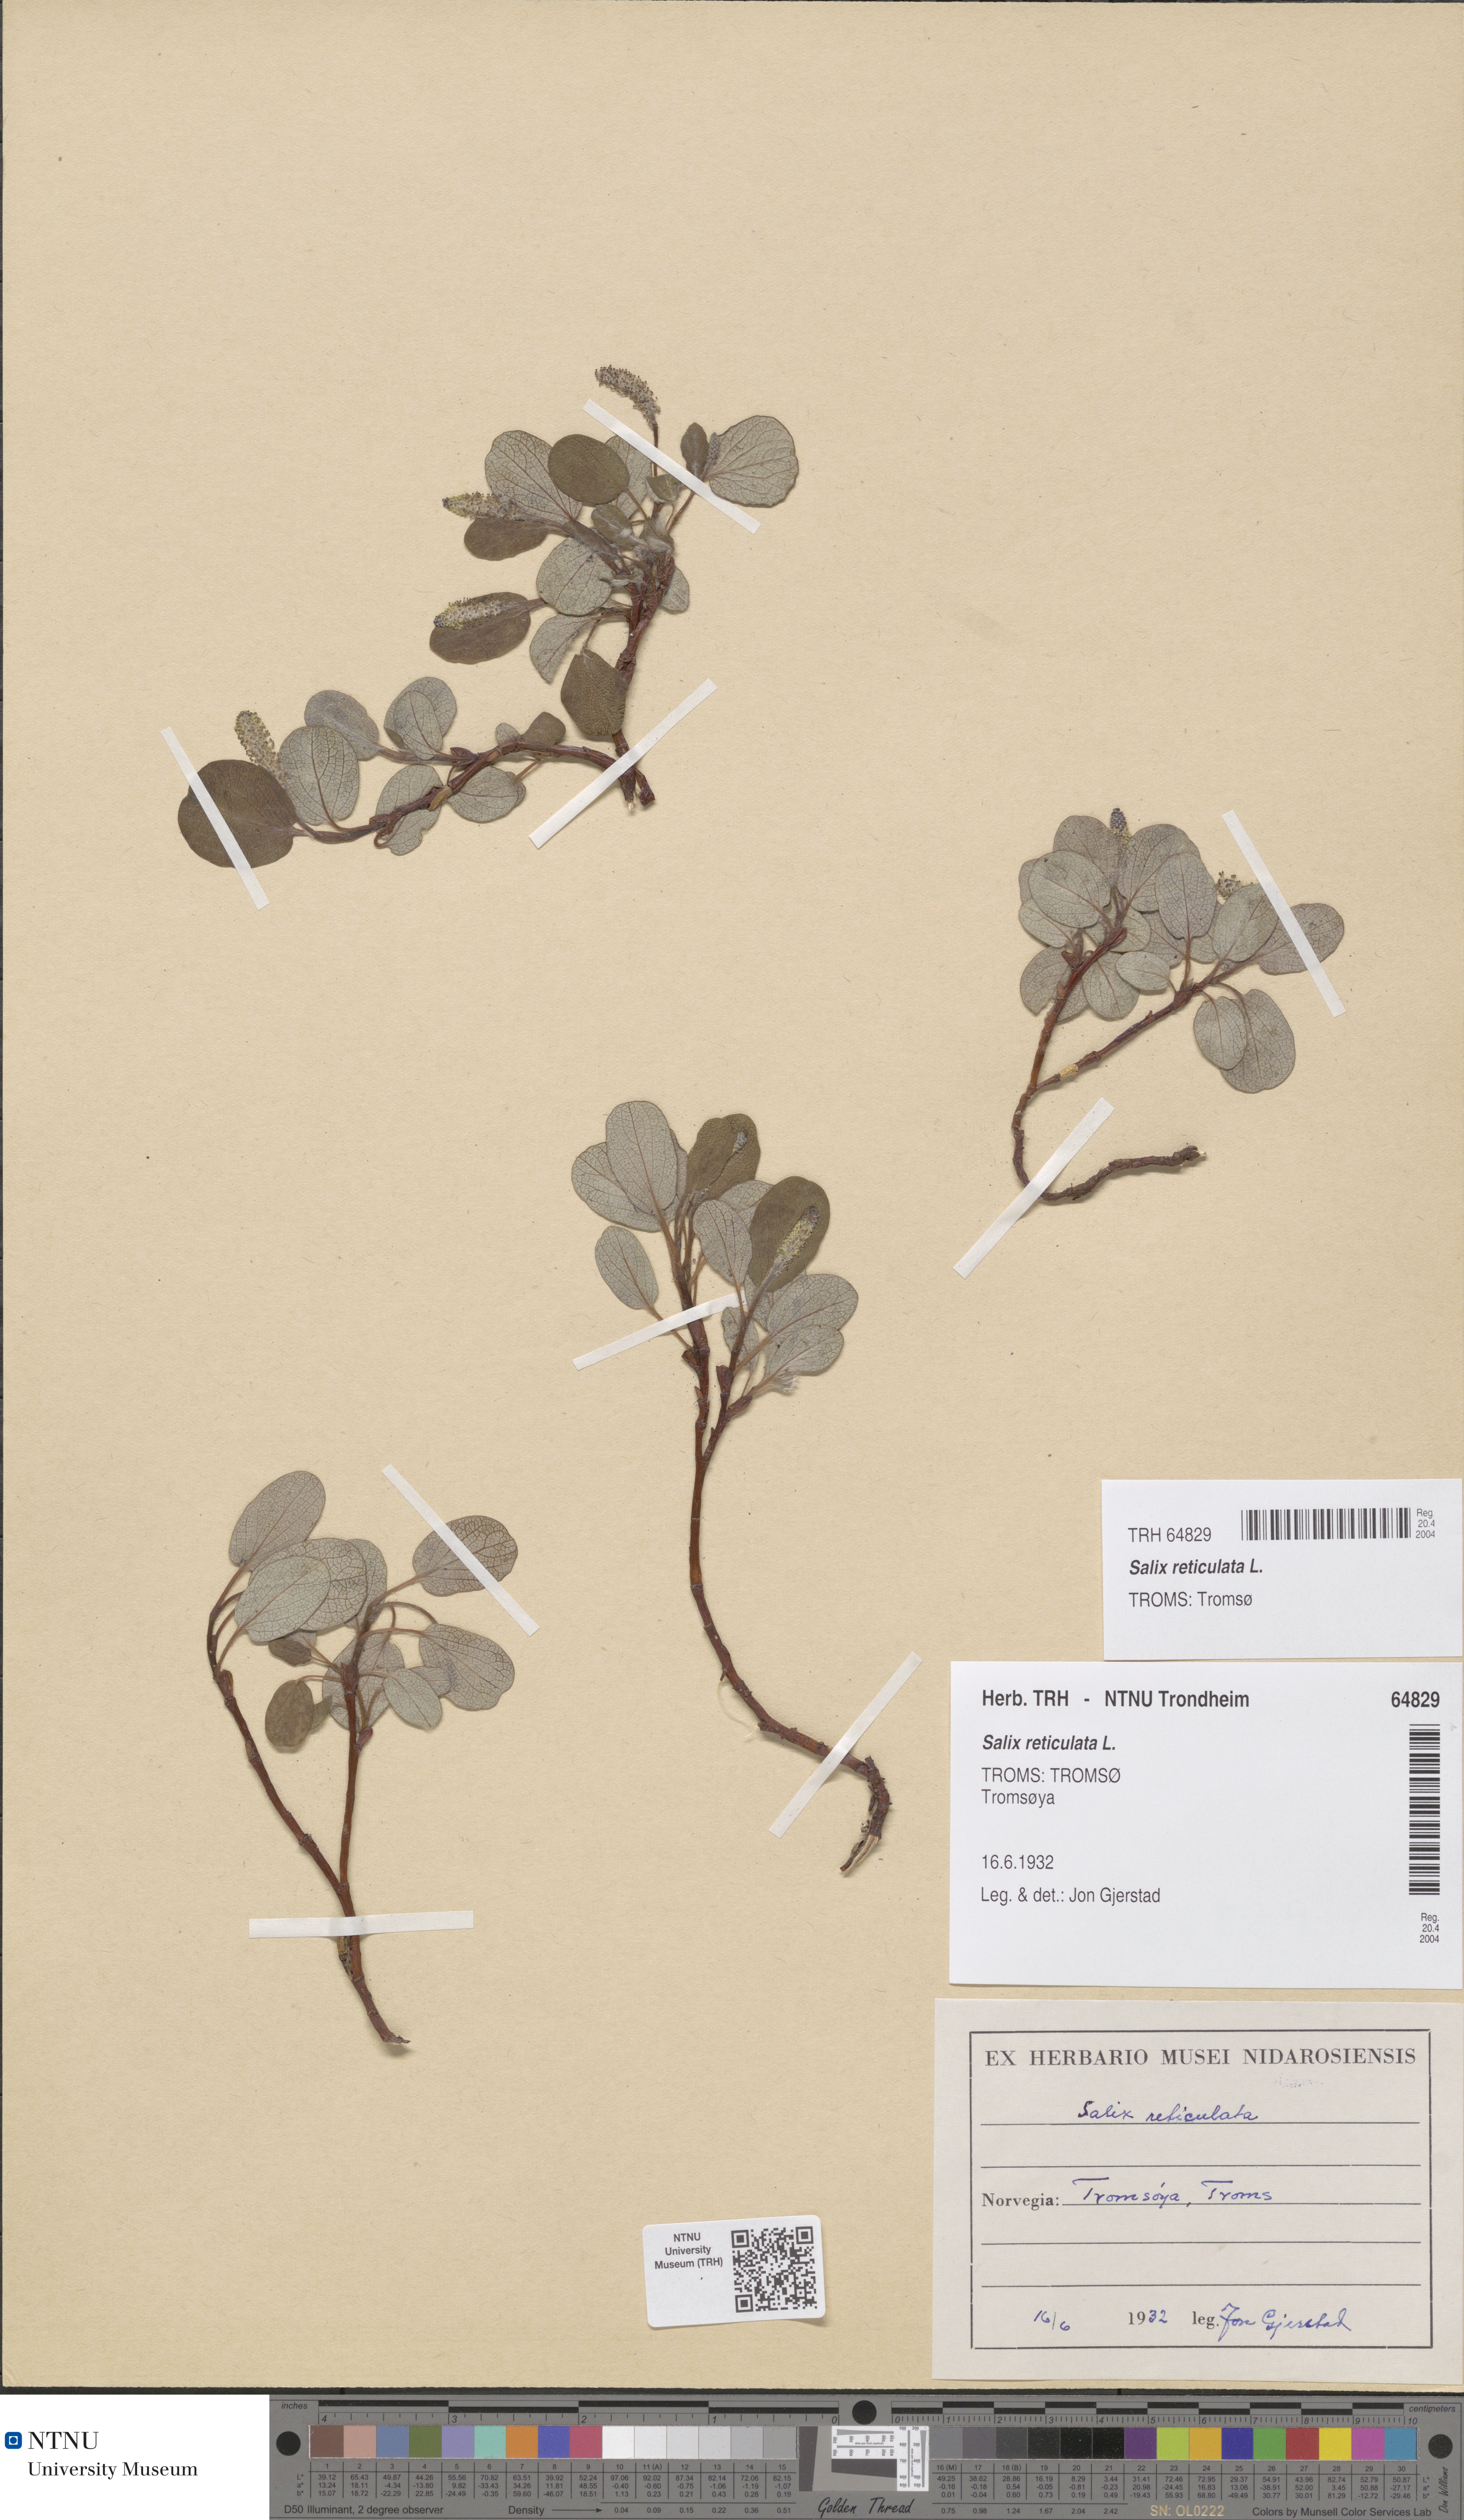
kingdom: Plantae
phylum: Tracheophyta
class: Magnoliopsida
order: Malpighiales
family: Salicaceae
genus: Salix
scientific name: Salix reticulata
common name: Net-leaved willow
